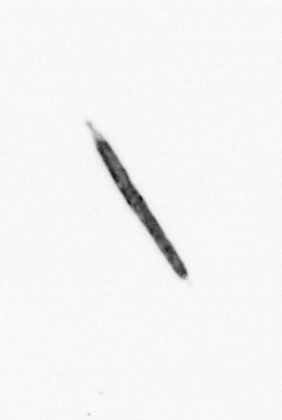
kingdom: Bacteria
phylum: Cyanobacteria
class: Cyanobacteriia
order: Cyanobacteriales
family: Microcoleaceae
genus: Trichodesmium
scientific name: Trichodesmium
